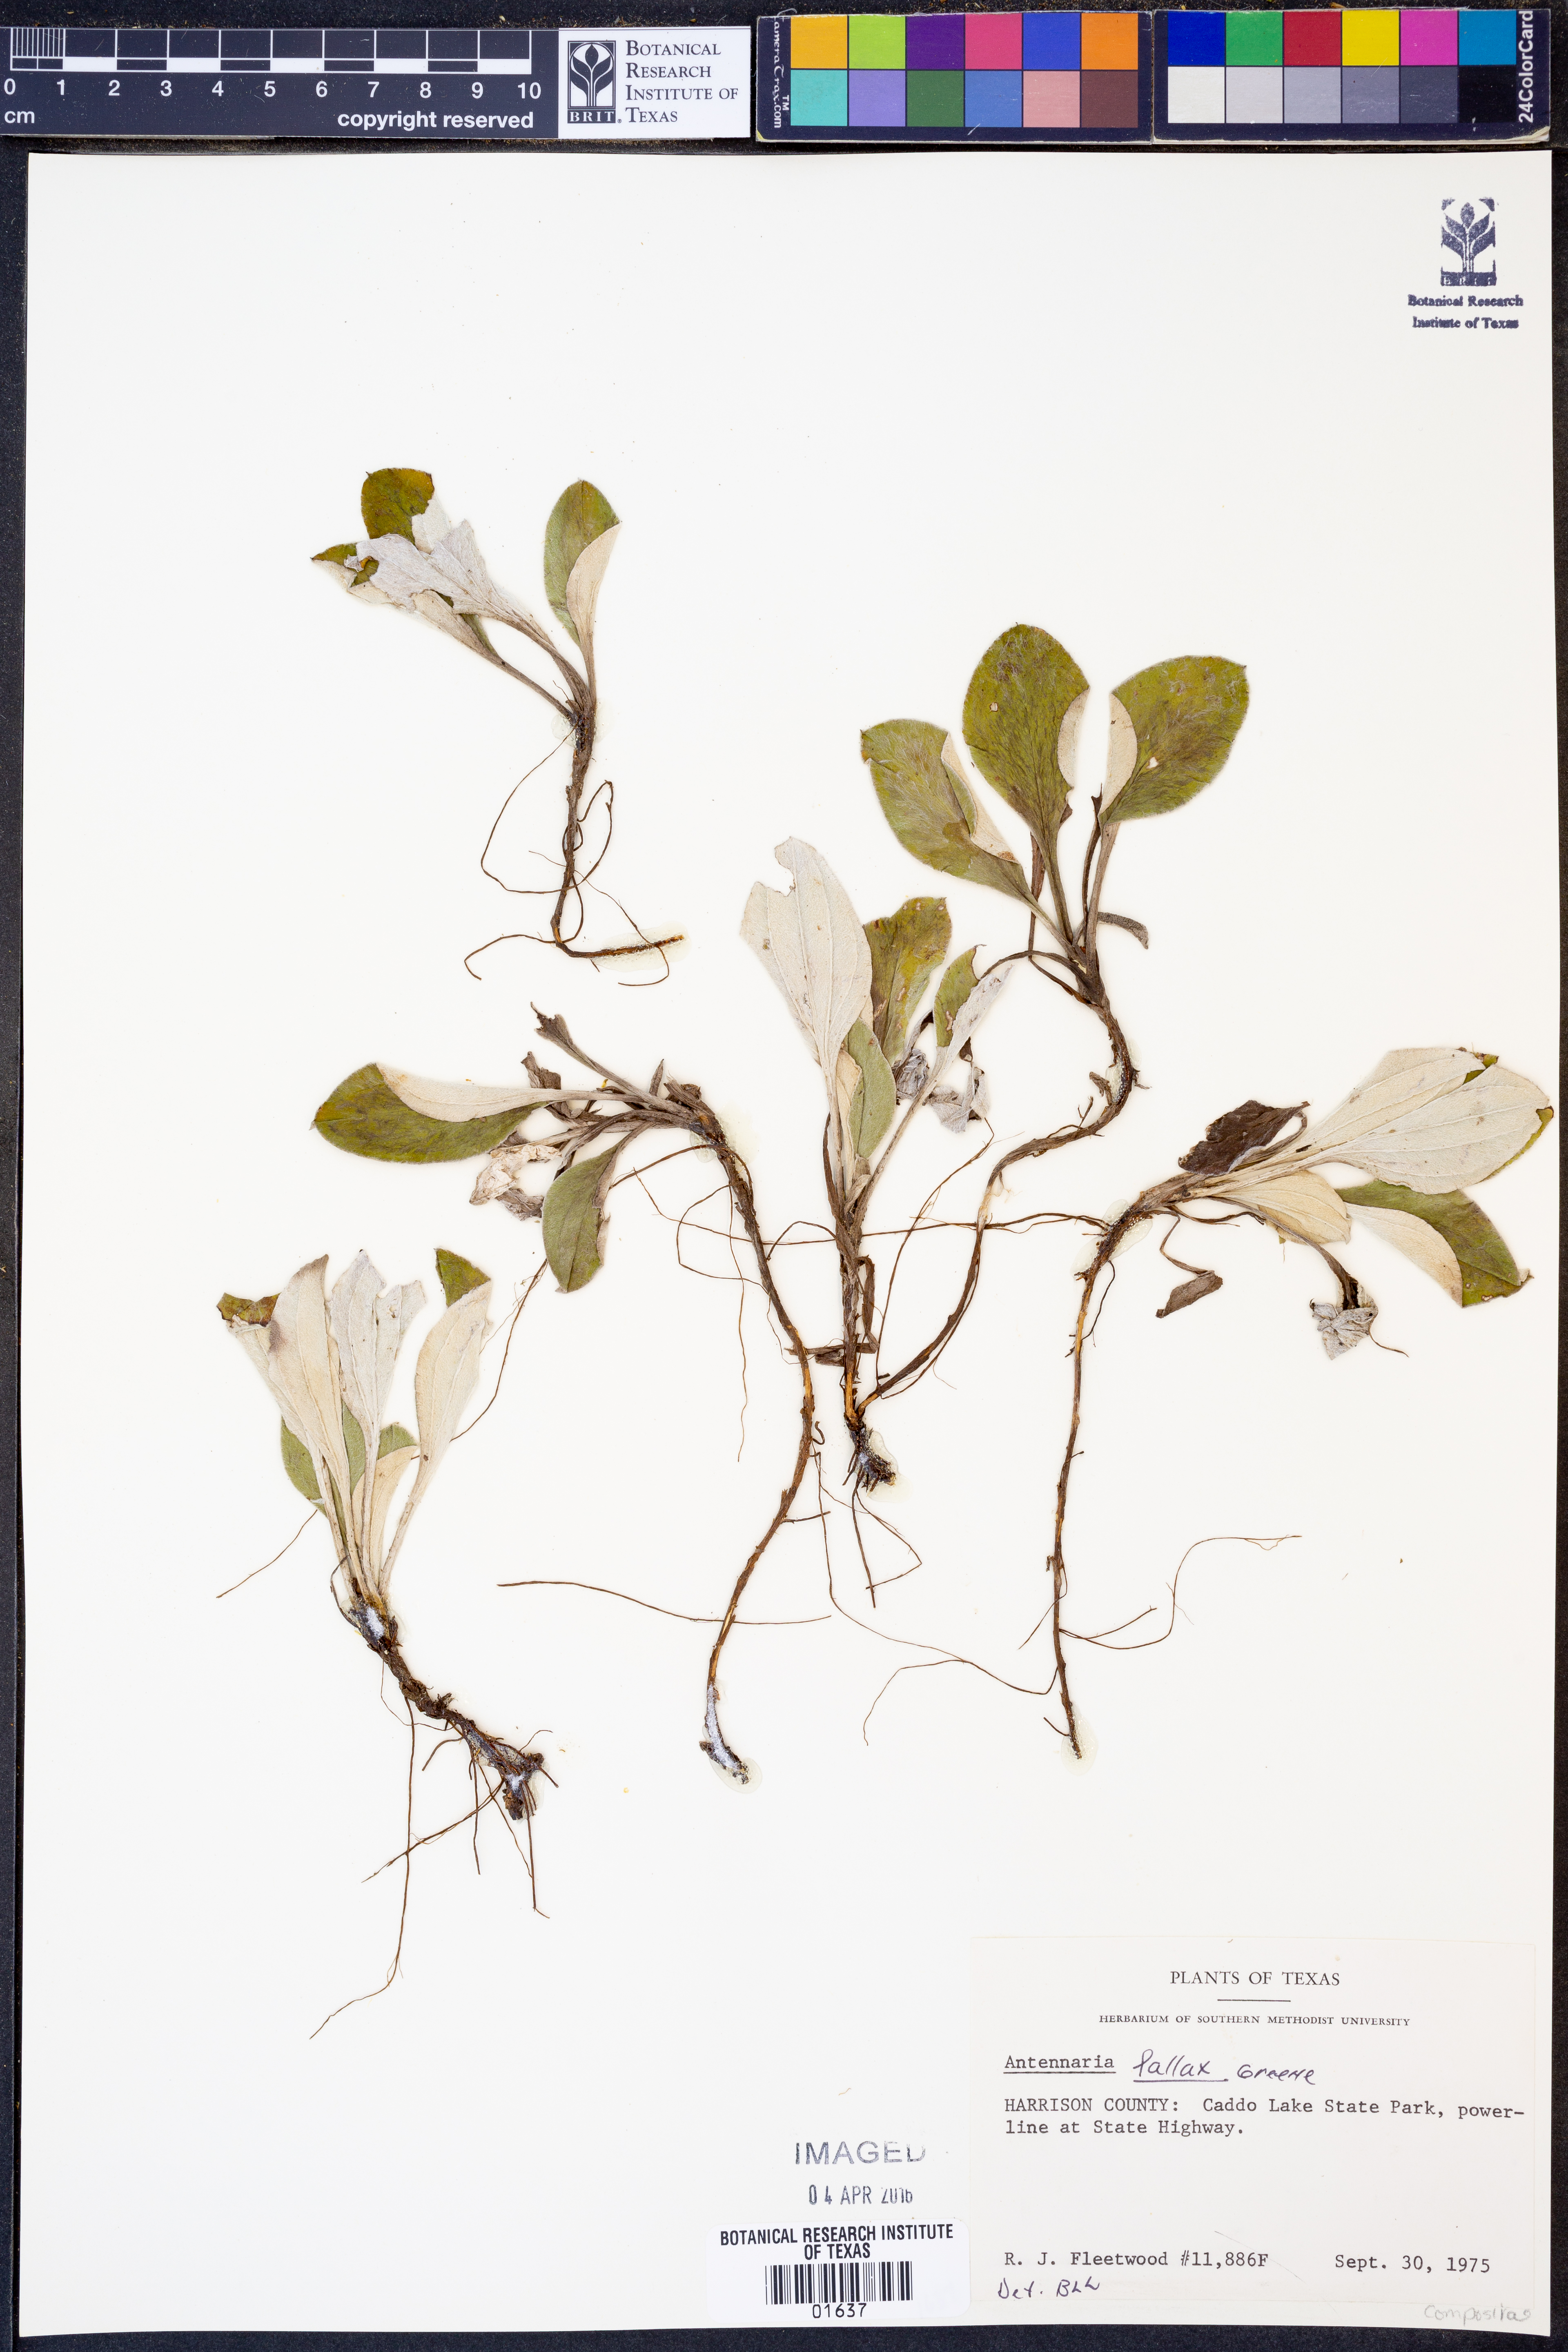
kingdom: Plantae
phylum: Tracheophyta
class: Magnoliopsida
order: Asterales
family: Asteraceae
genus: Antennaria
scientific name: Antennaria parlinii
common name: Parlin's pussytoes
